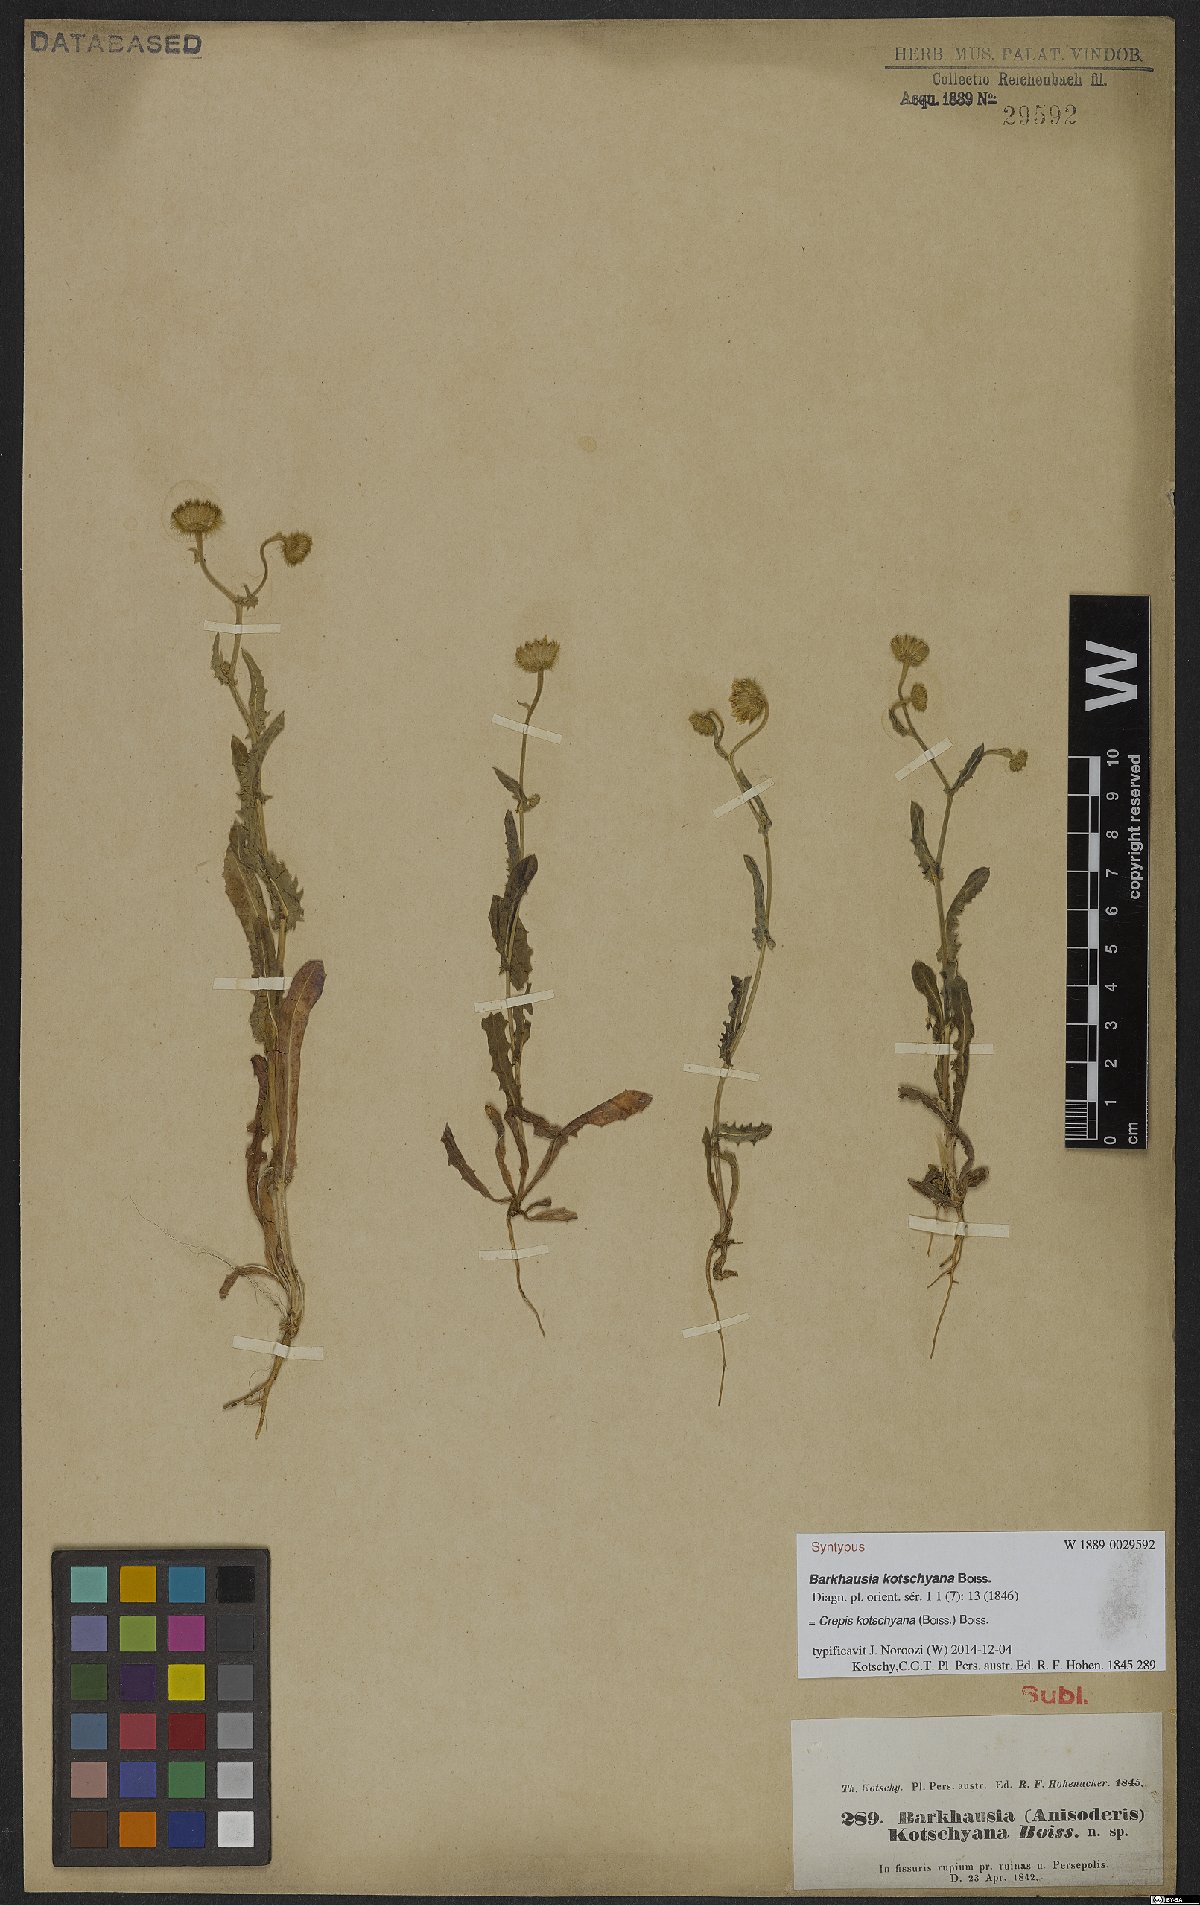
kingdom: Plantae
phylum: Tracheophyta
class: Magnoliopsida
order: Asterales
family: Asteraceae
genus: Crepis
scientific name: Crepis kotschyana
